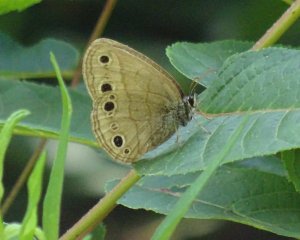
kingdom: Animalia
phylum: Arthropoda
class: Insecta
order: Lepidoptera
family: Nymphalidae
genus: Euptychia
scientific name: Euptychia cymela
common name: Little Wood Satyr
